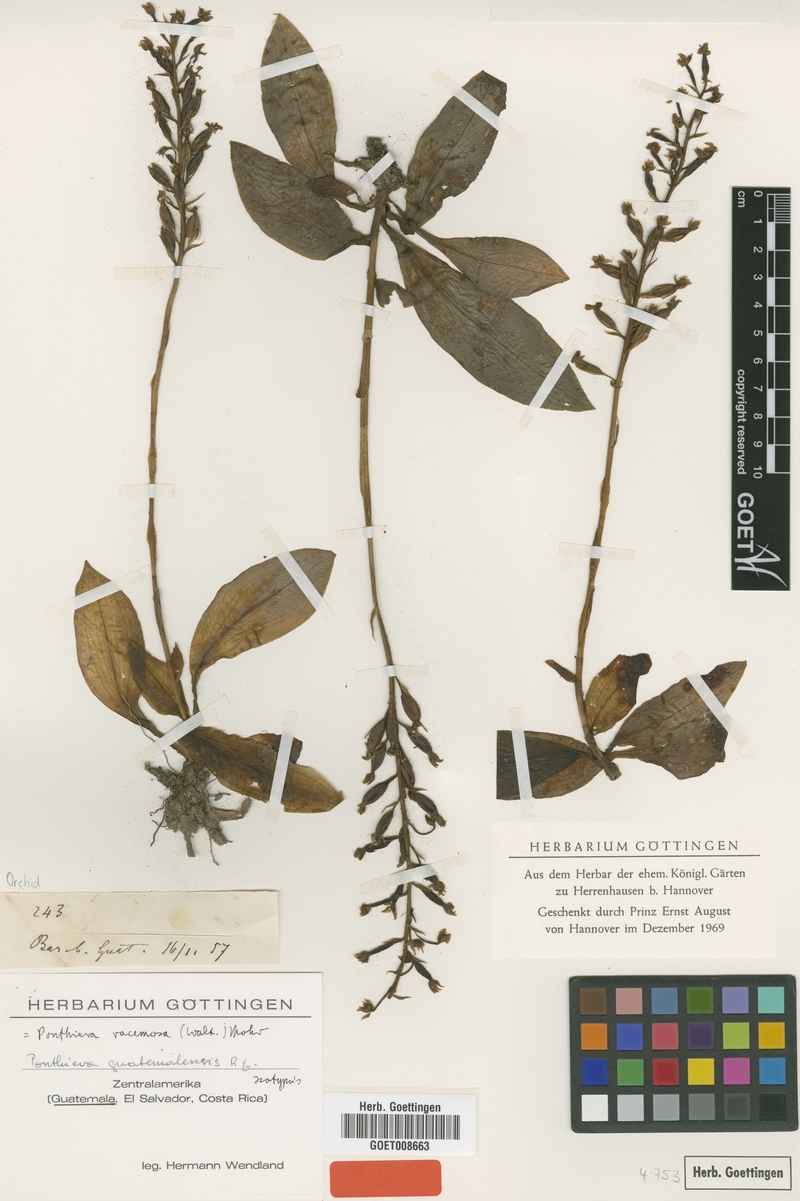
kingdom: Plantae
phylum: Tracheophyta
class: Liliopsida
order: Asparagales
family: Orchidaceae
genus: Ponthieva
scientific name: Ponthieva racemosa
